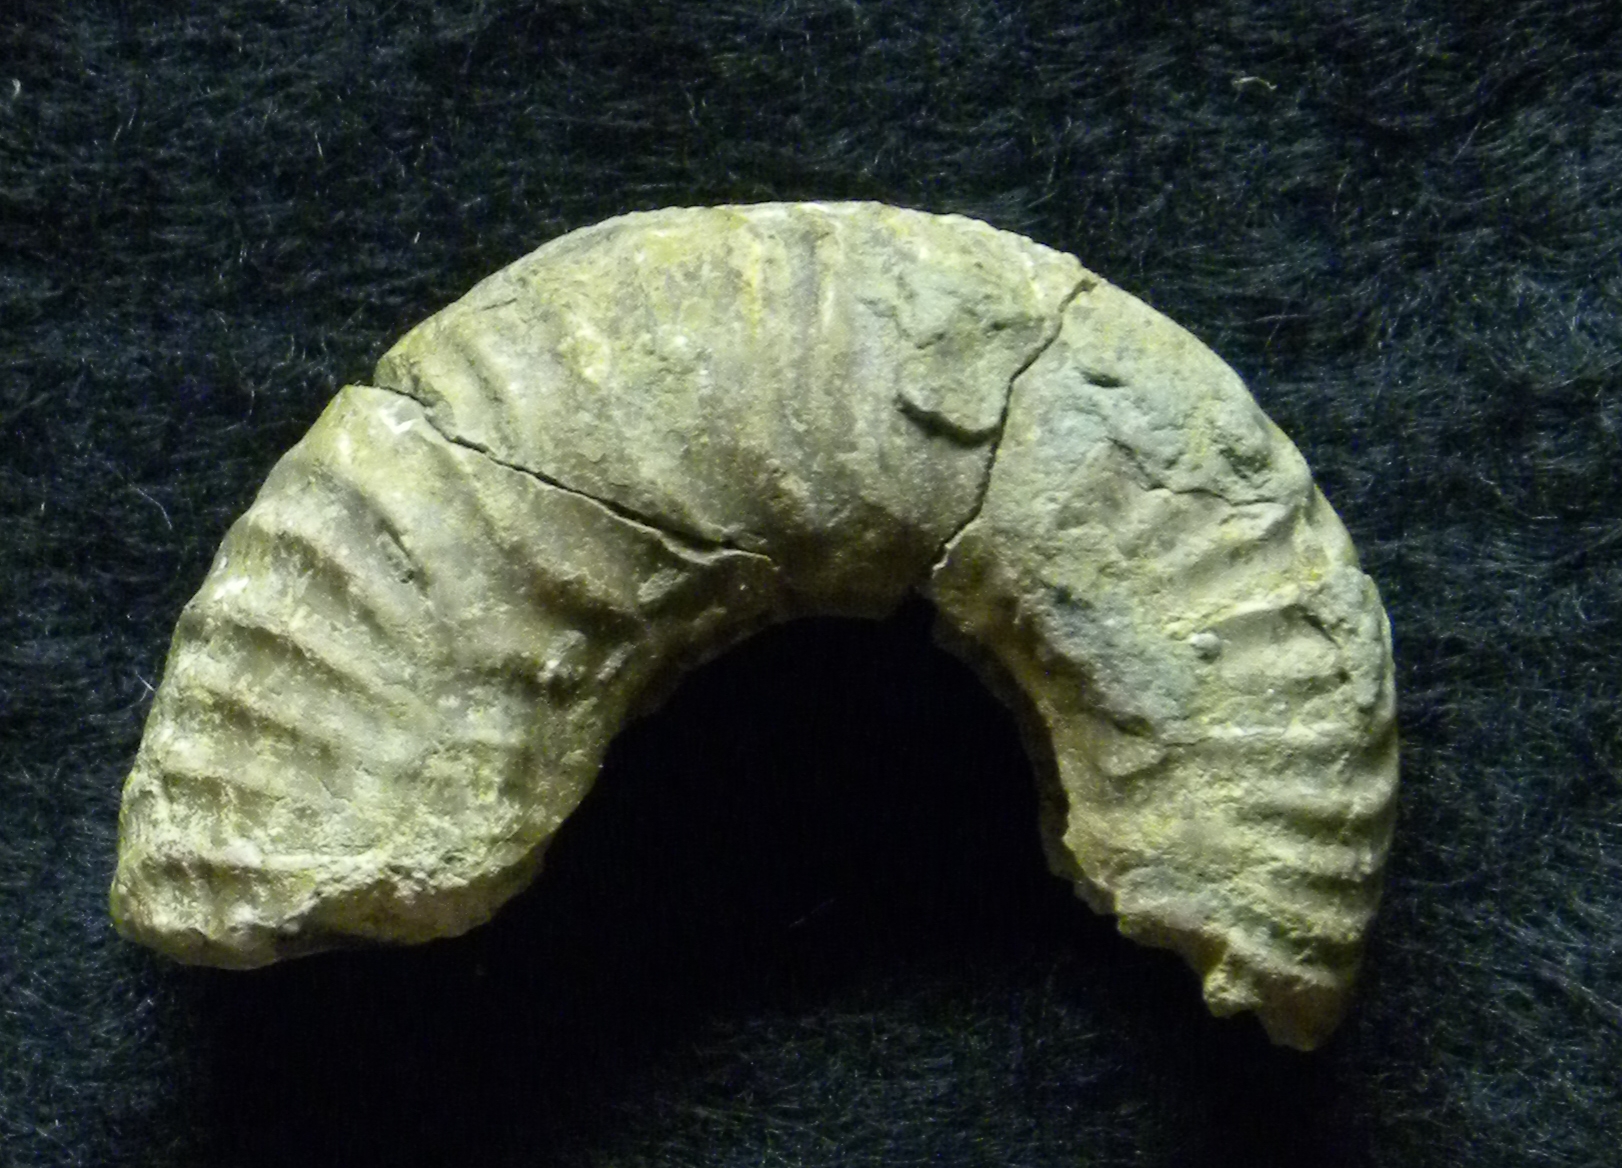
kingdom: Animalia
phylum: Mollusca
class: Cephalopoda
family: Phymatoceratidae
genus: Phymatoceras
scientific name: Phymatoceras fabalis
